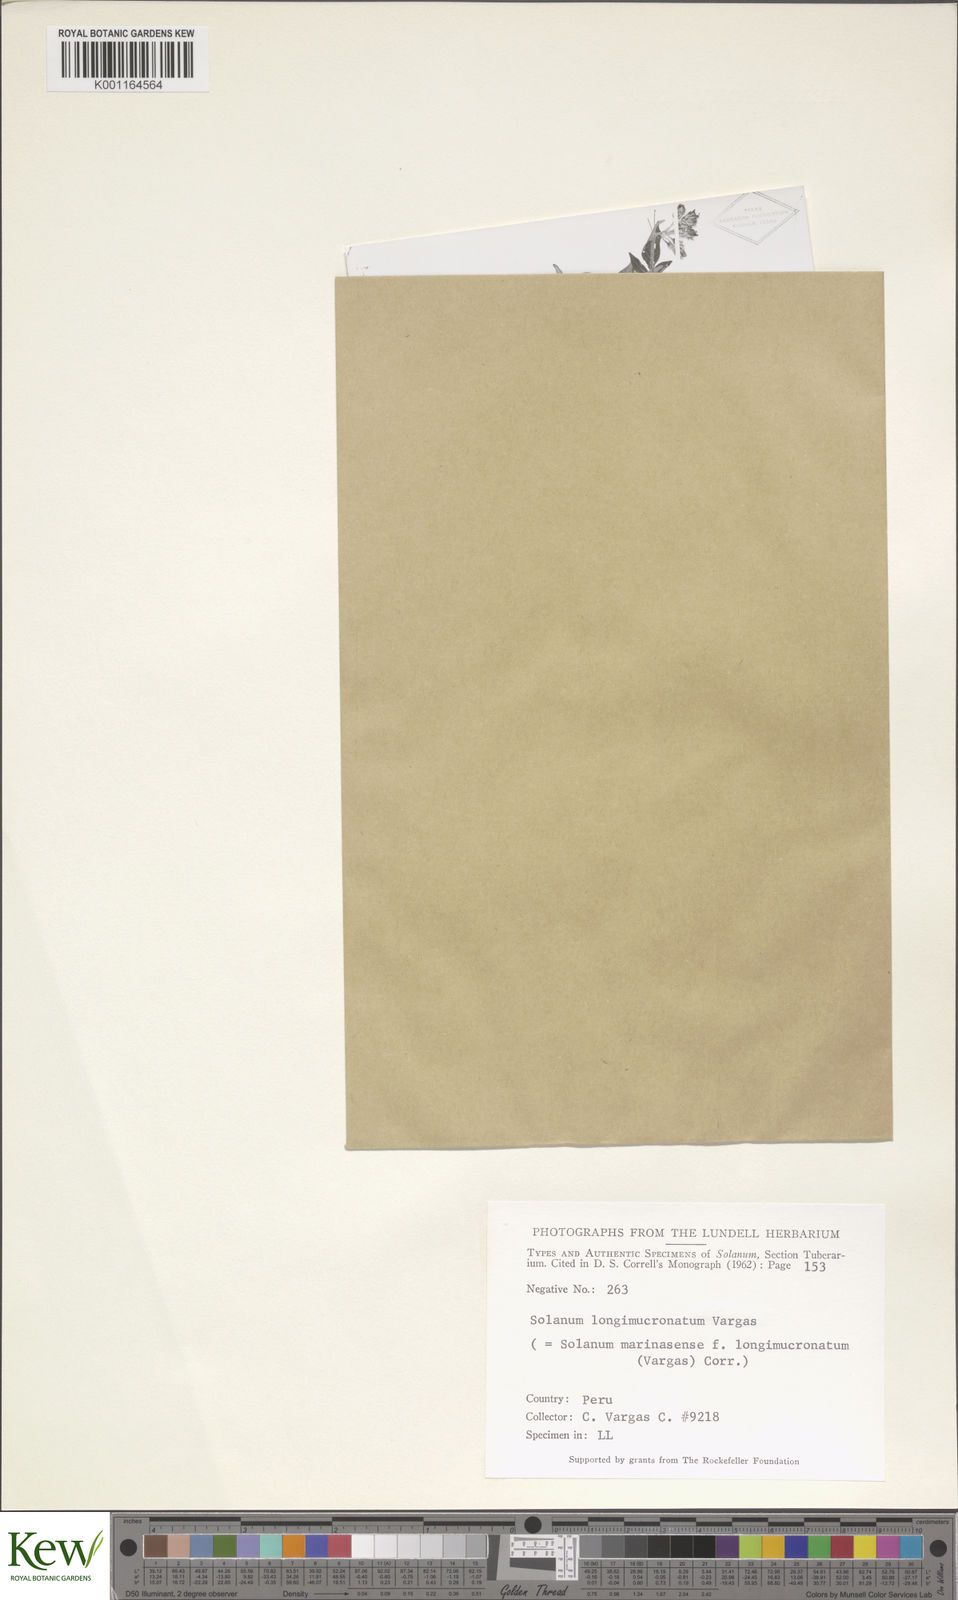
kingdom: Plantae
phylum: Tracheophyta
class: Magnoliopsida
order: Solanales
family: Solanaceae
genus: Solanum
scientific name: Solanum candolleanum
